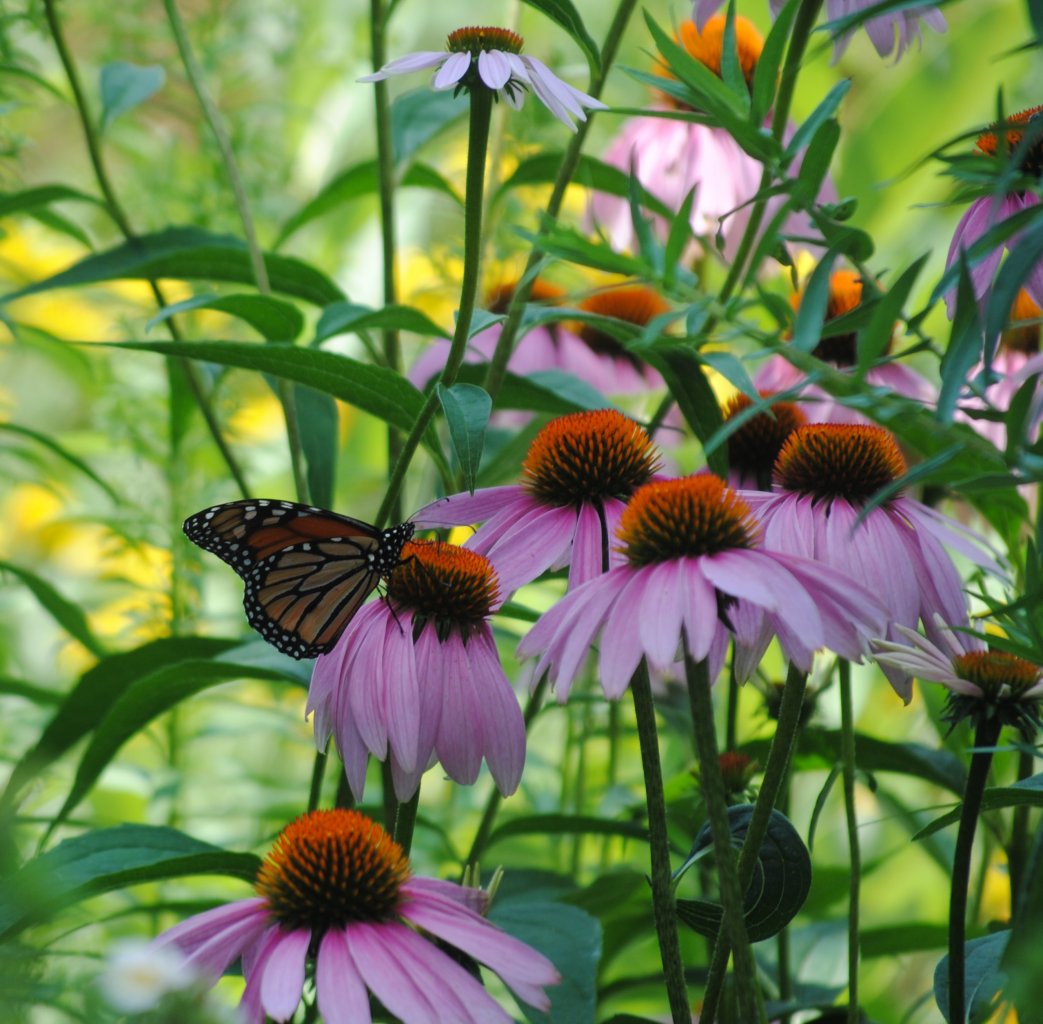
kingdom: Animalia
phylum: Arthropoda
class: Insecta
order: Lepidoptera
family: Nymphalidae
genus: Danaus
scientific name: Danaus plexippus
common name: Monarch
